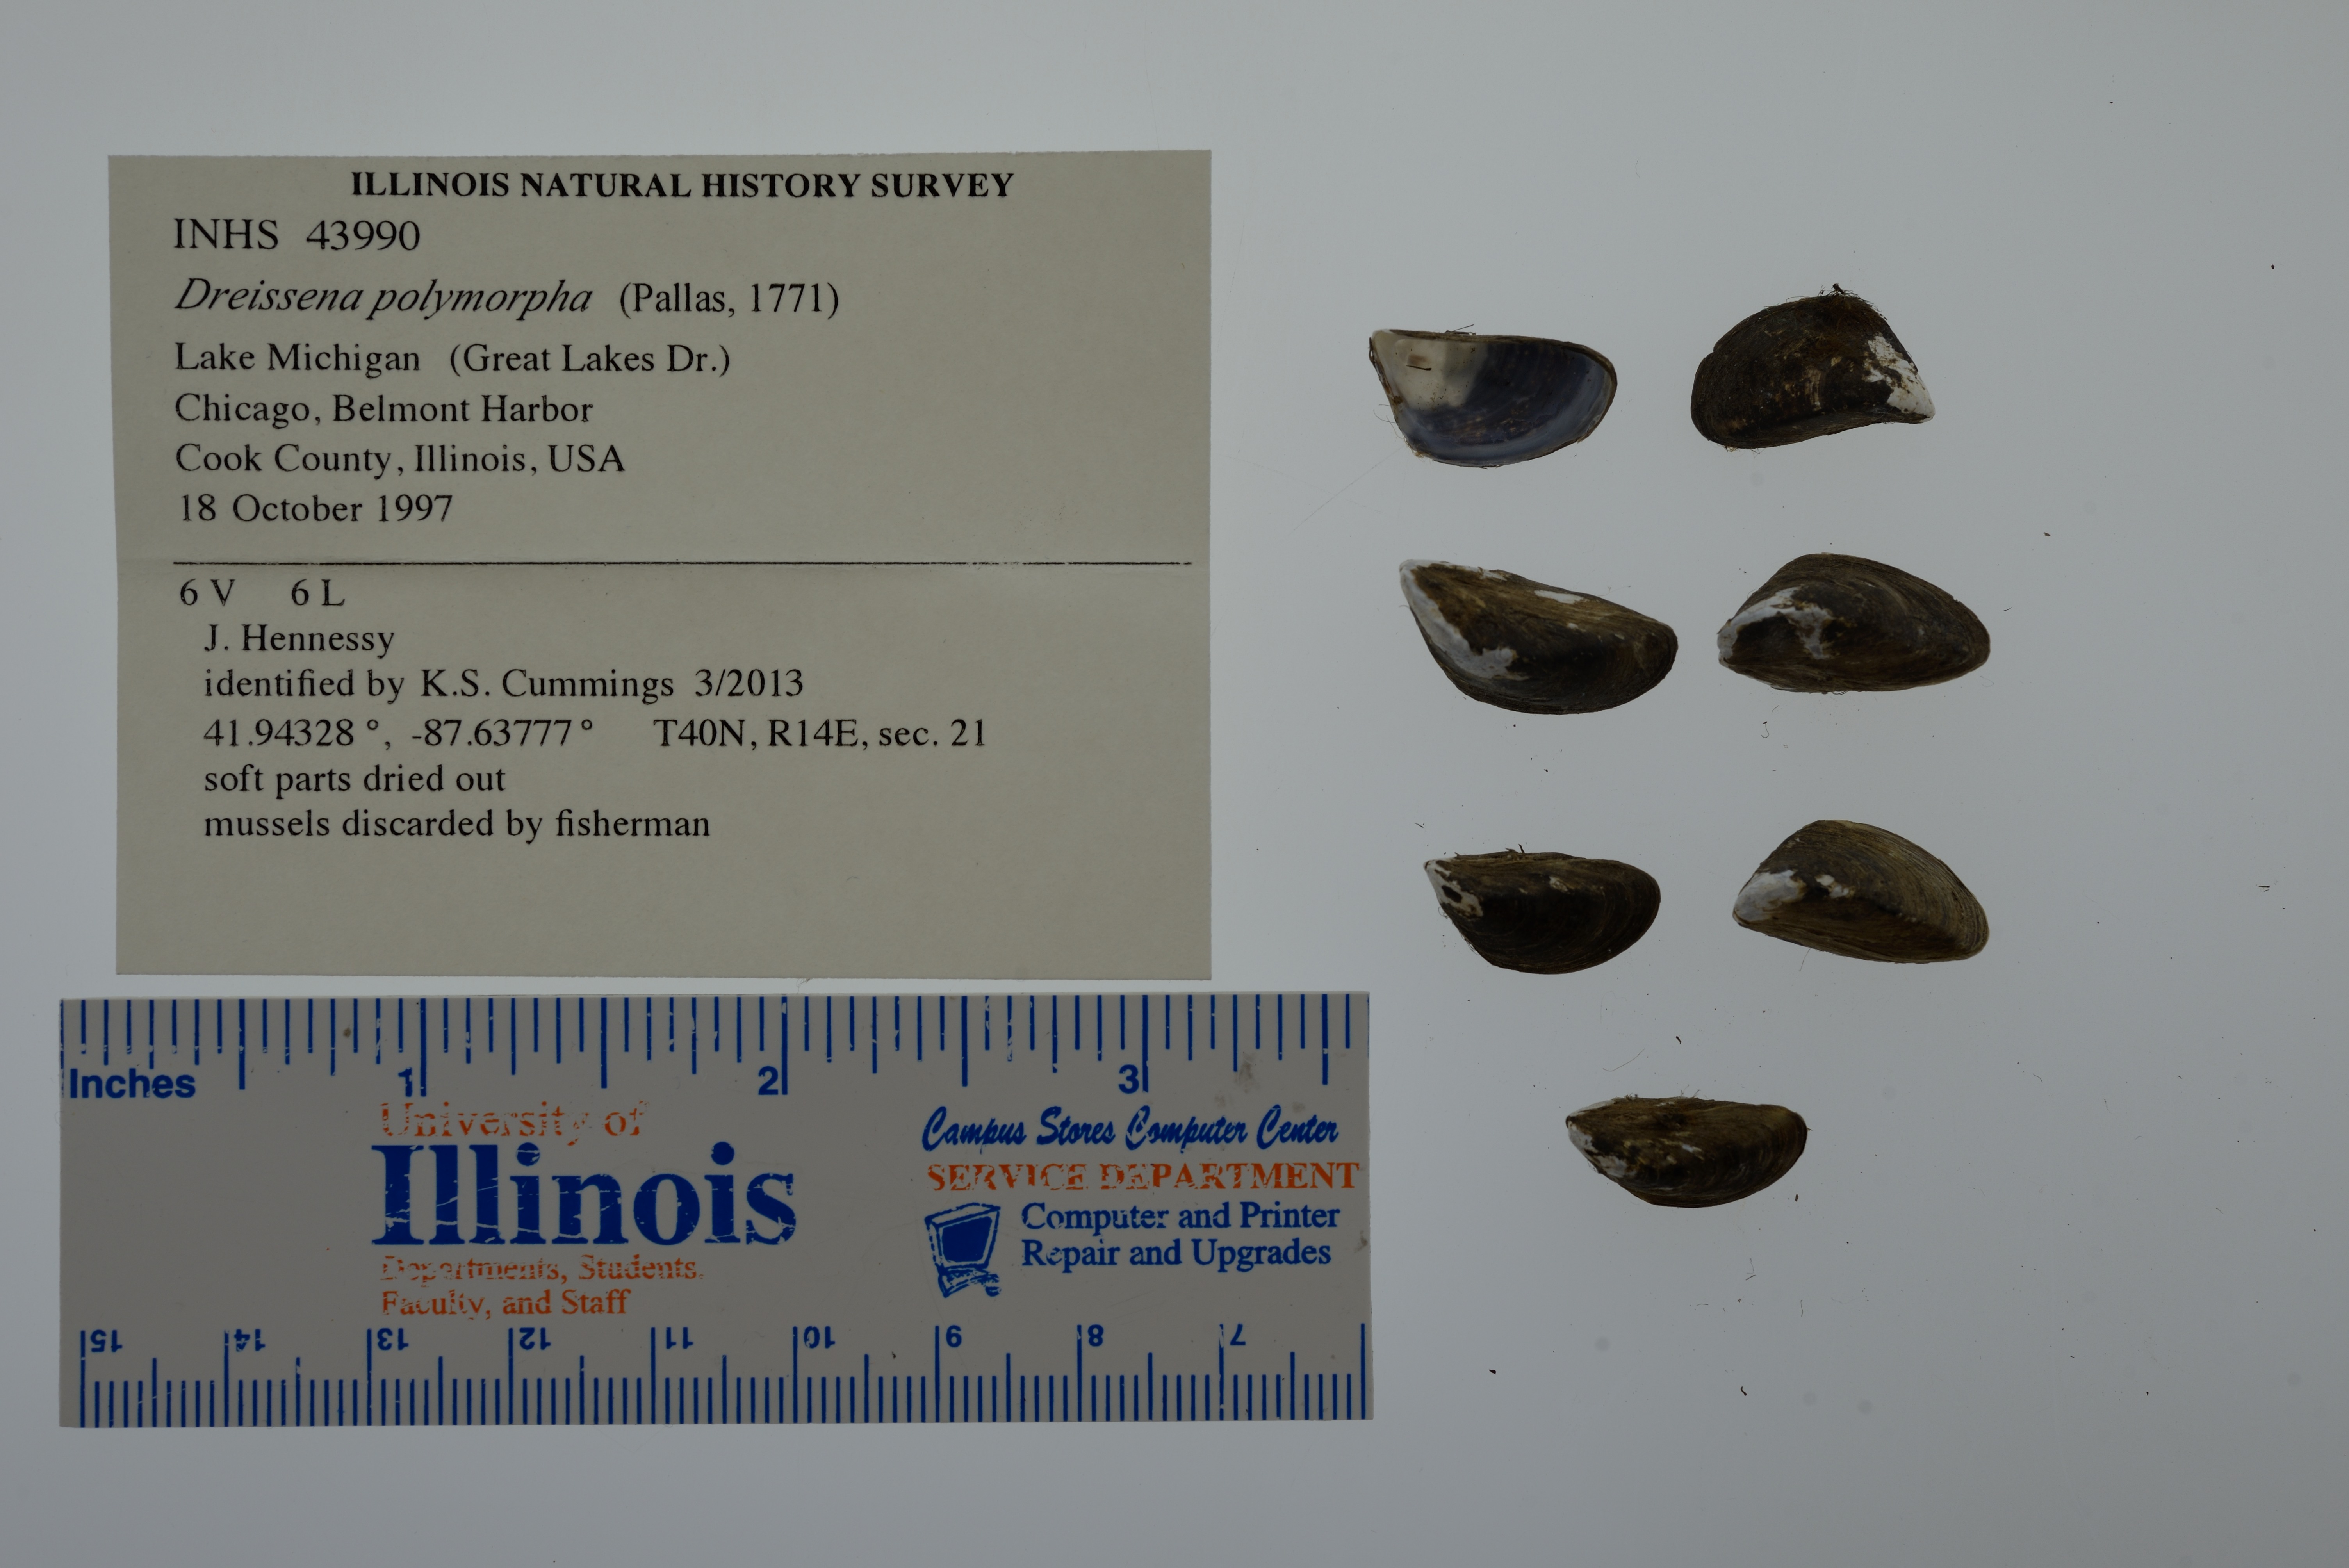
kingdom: Animalia
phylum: Mollusca
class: Bivalvia
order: Myida
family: Dreissenidae
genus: Dreissena
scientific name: Dreissena polymorpha
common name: Zebra mussel
